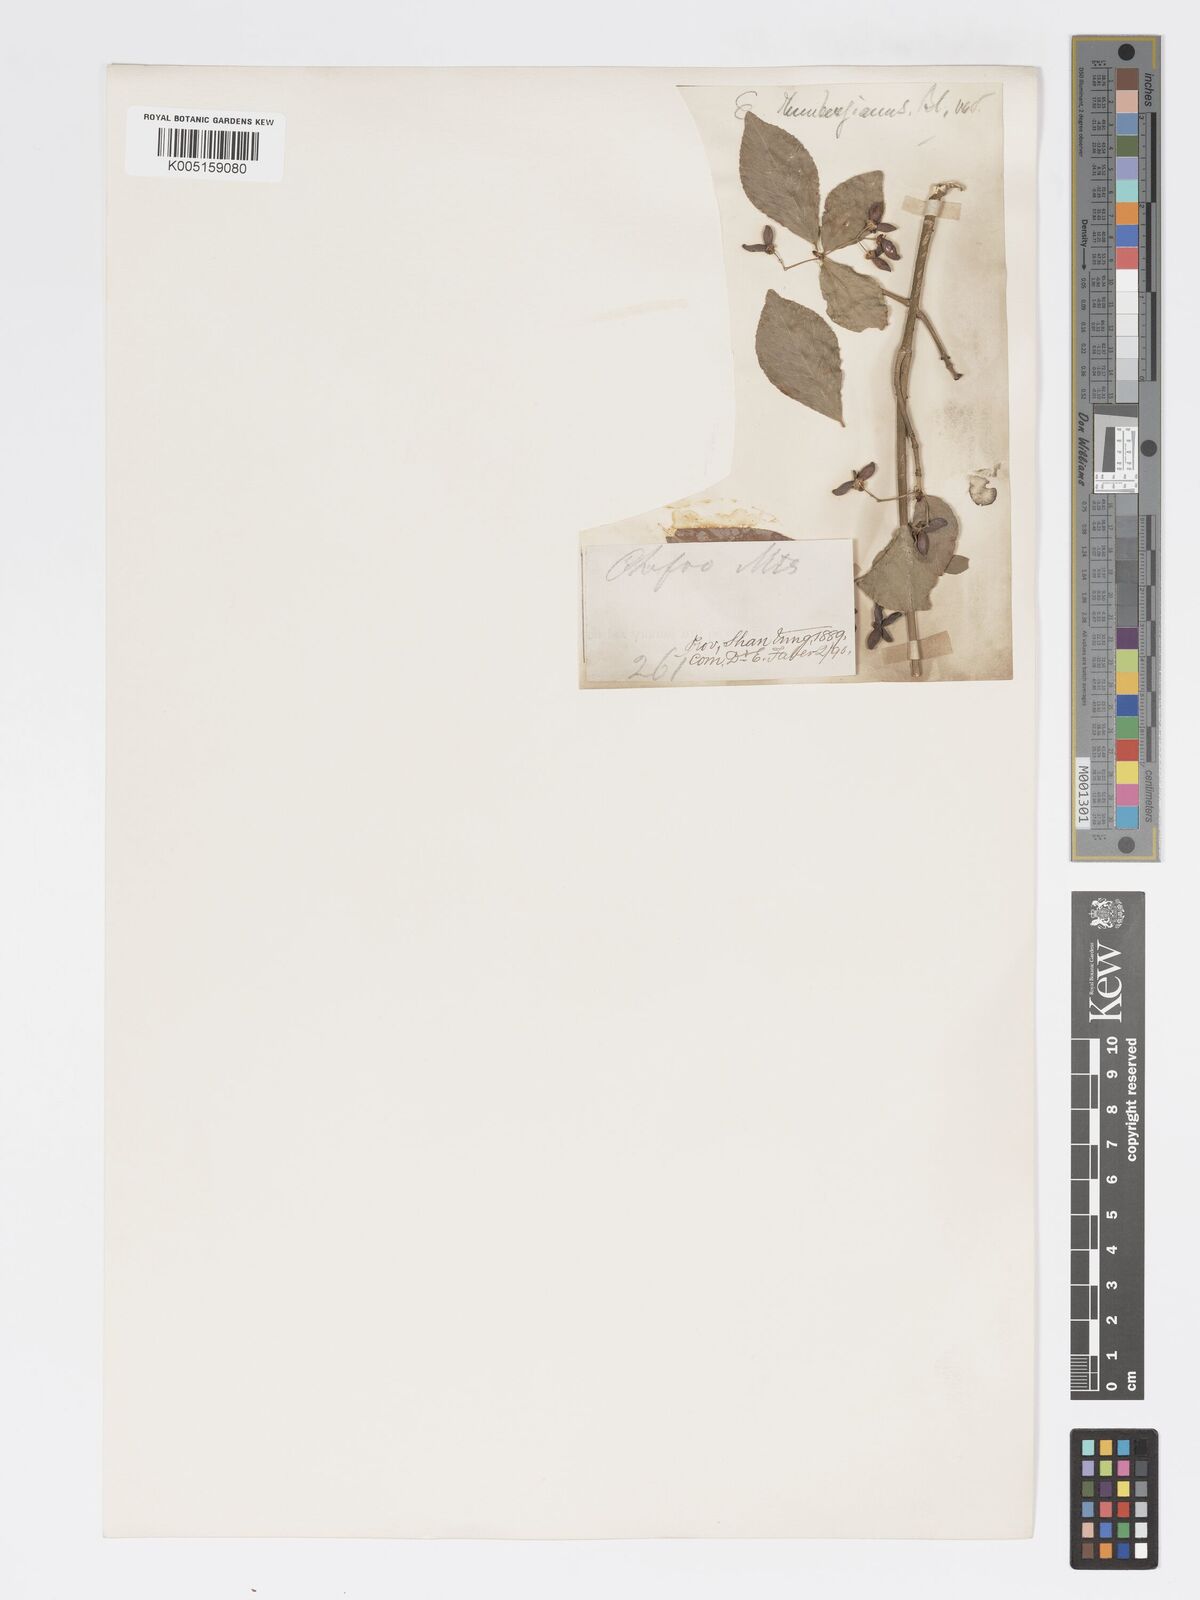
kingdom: Plantae
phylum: Tracheophyta
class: Magnoliopsida
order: Celastrales
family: Celastraceae
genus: Euonymus
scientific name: Euonymus
